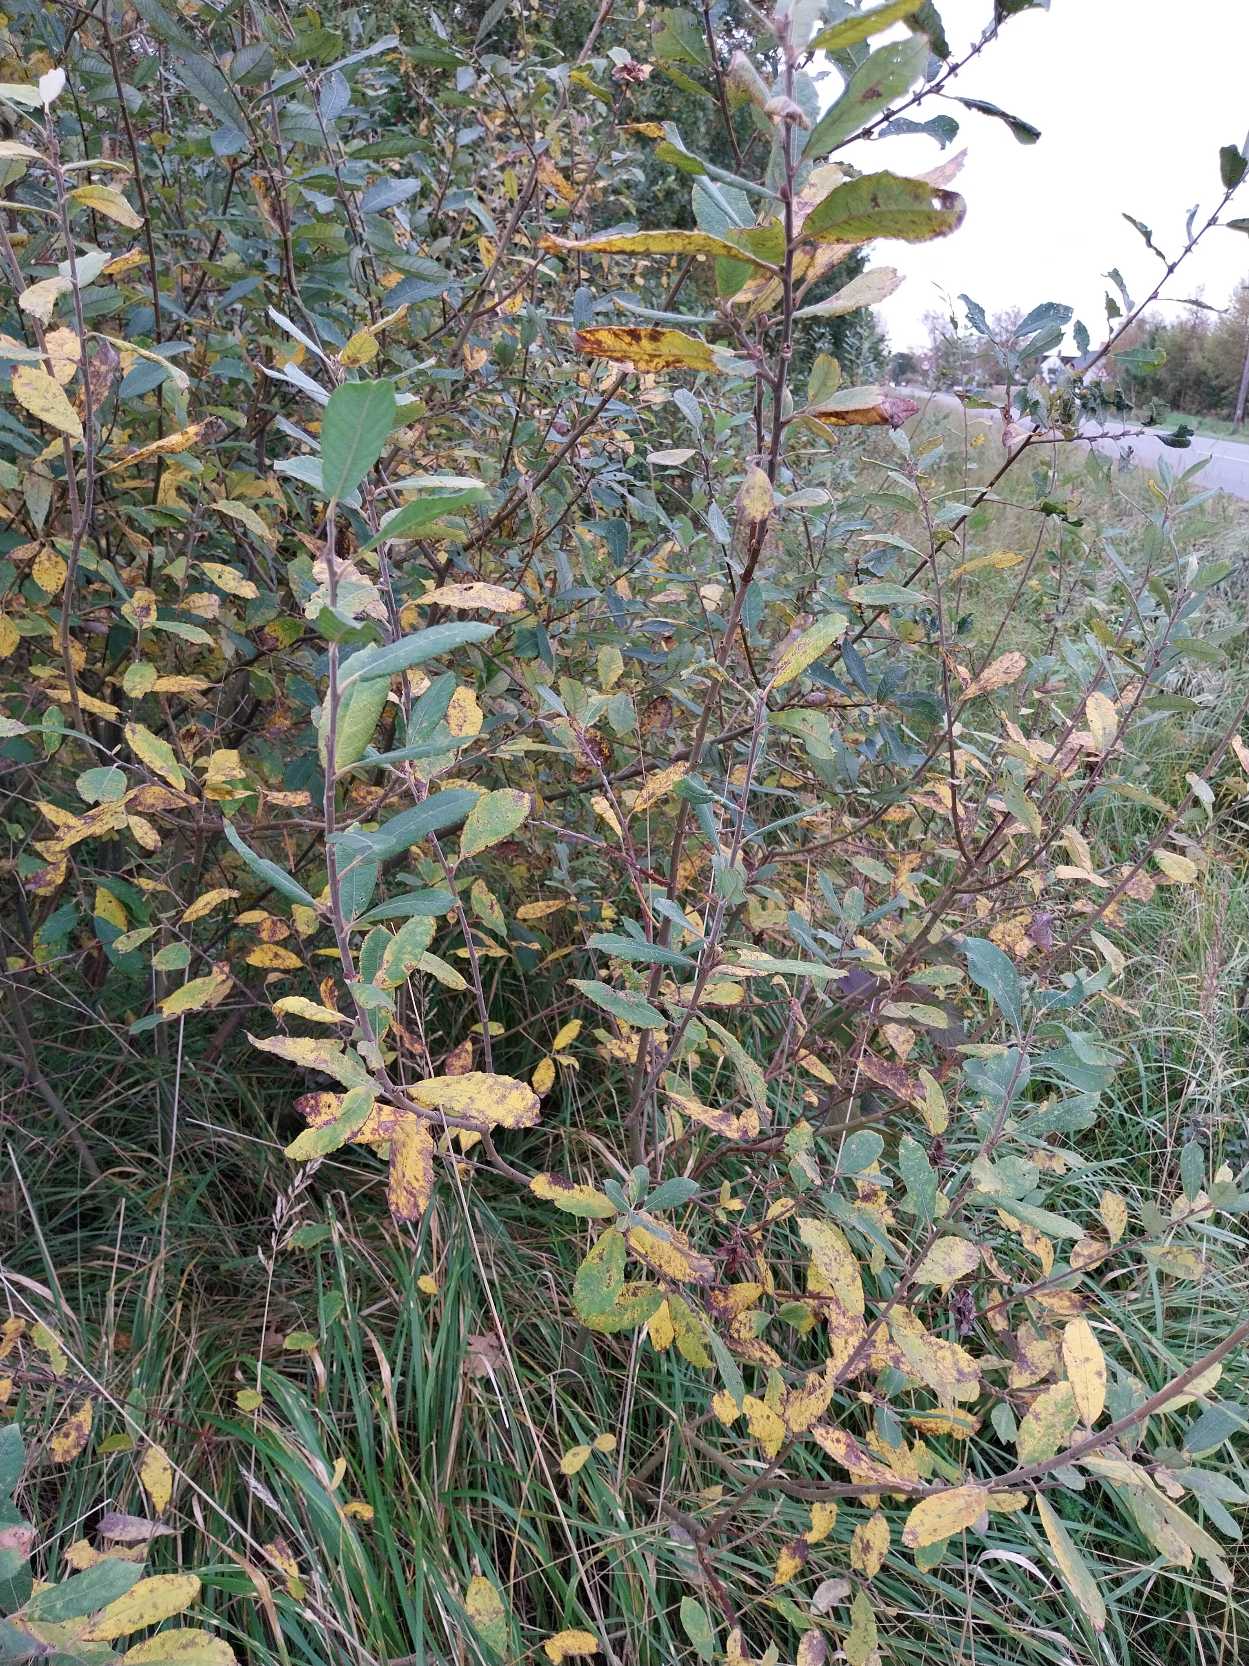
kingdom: Plantae
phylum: Tracheophyta
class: Magnoliopsida
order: Malpighiales
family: Salicaceae
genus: Salix
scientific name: Salix cinerea
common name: Grå-pil
